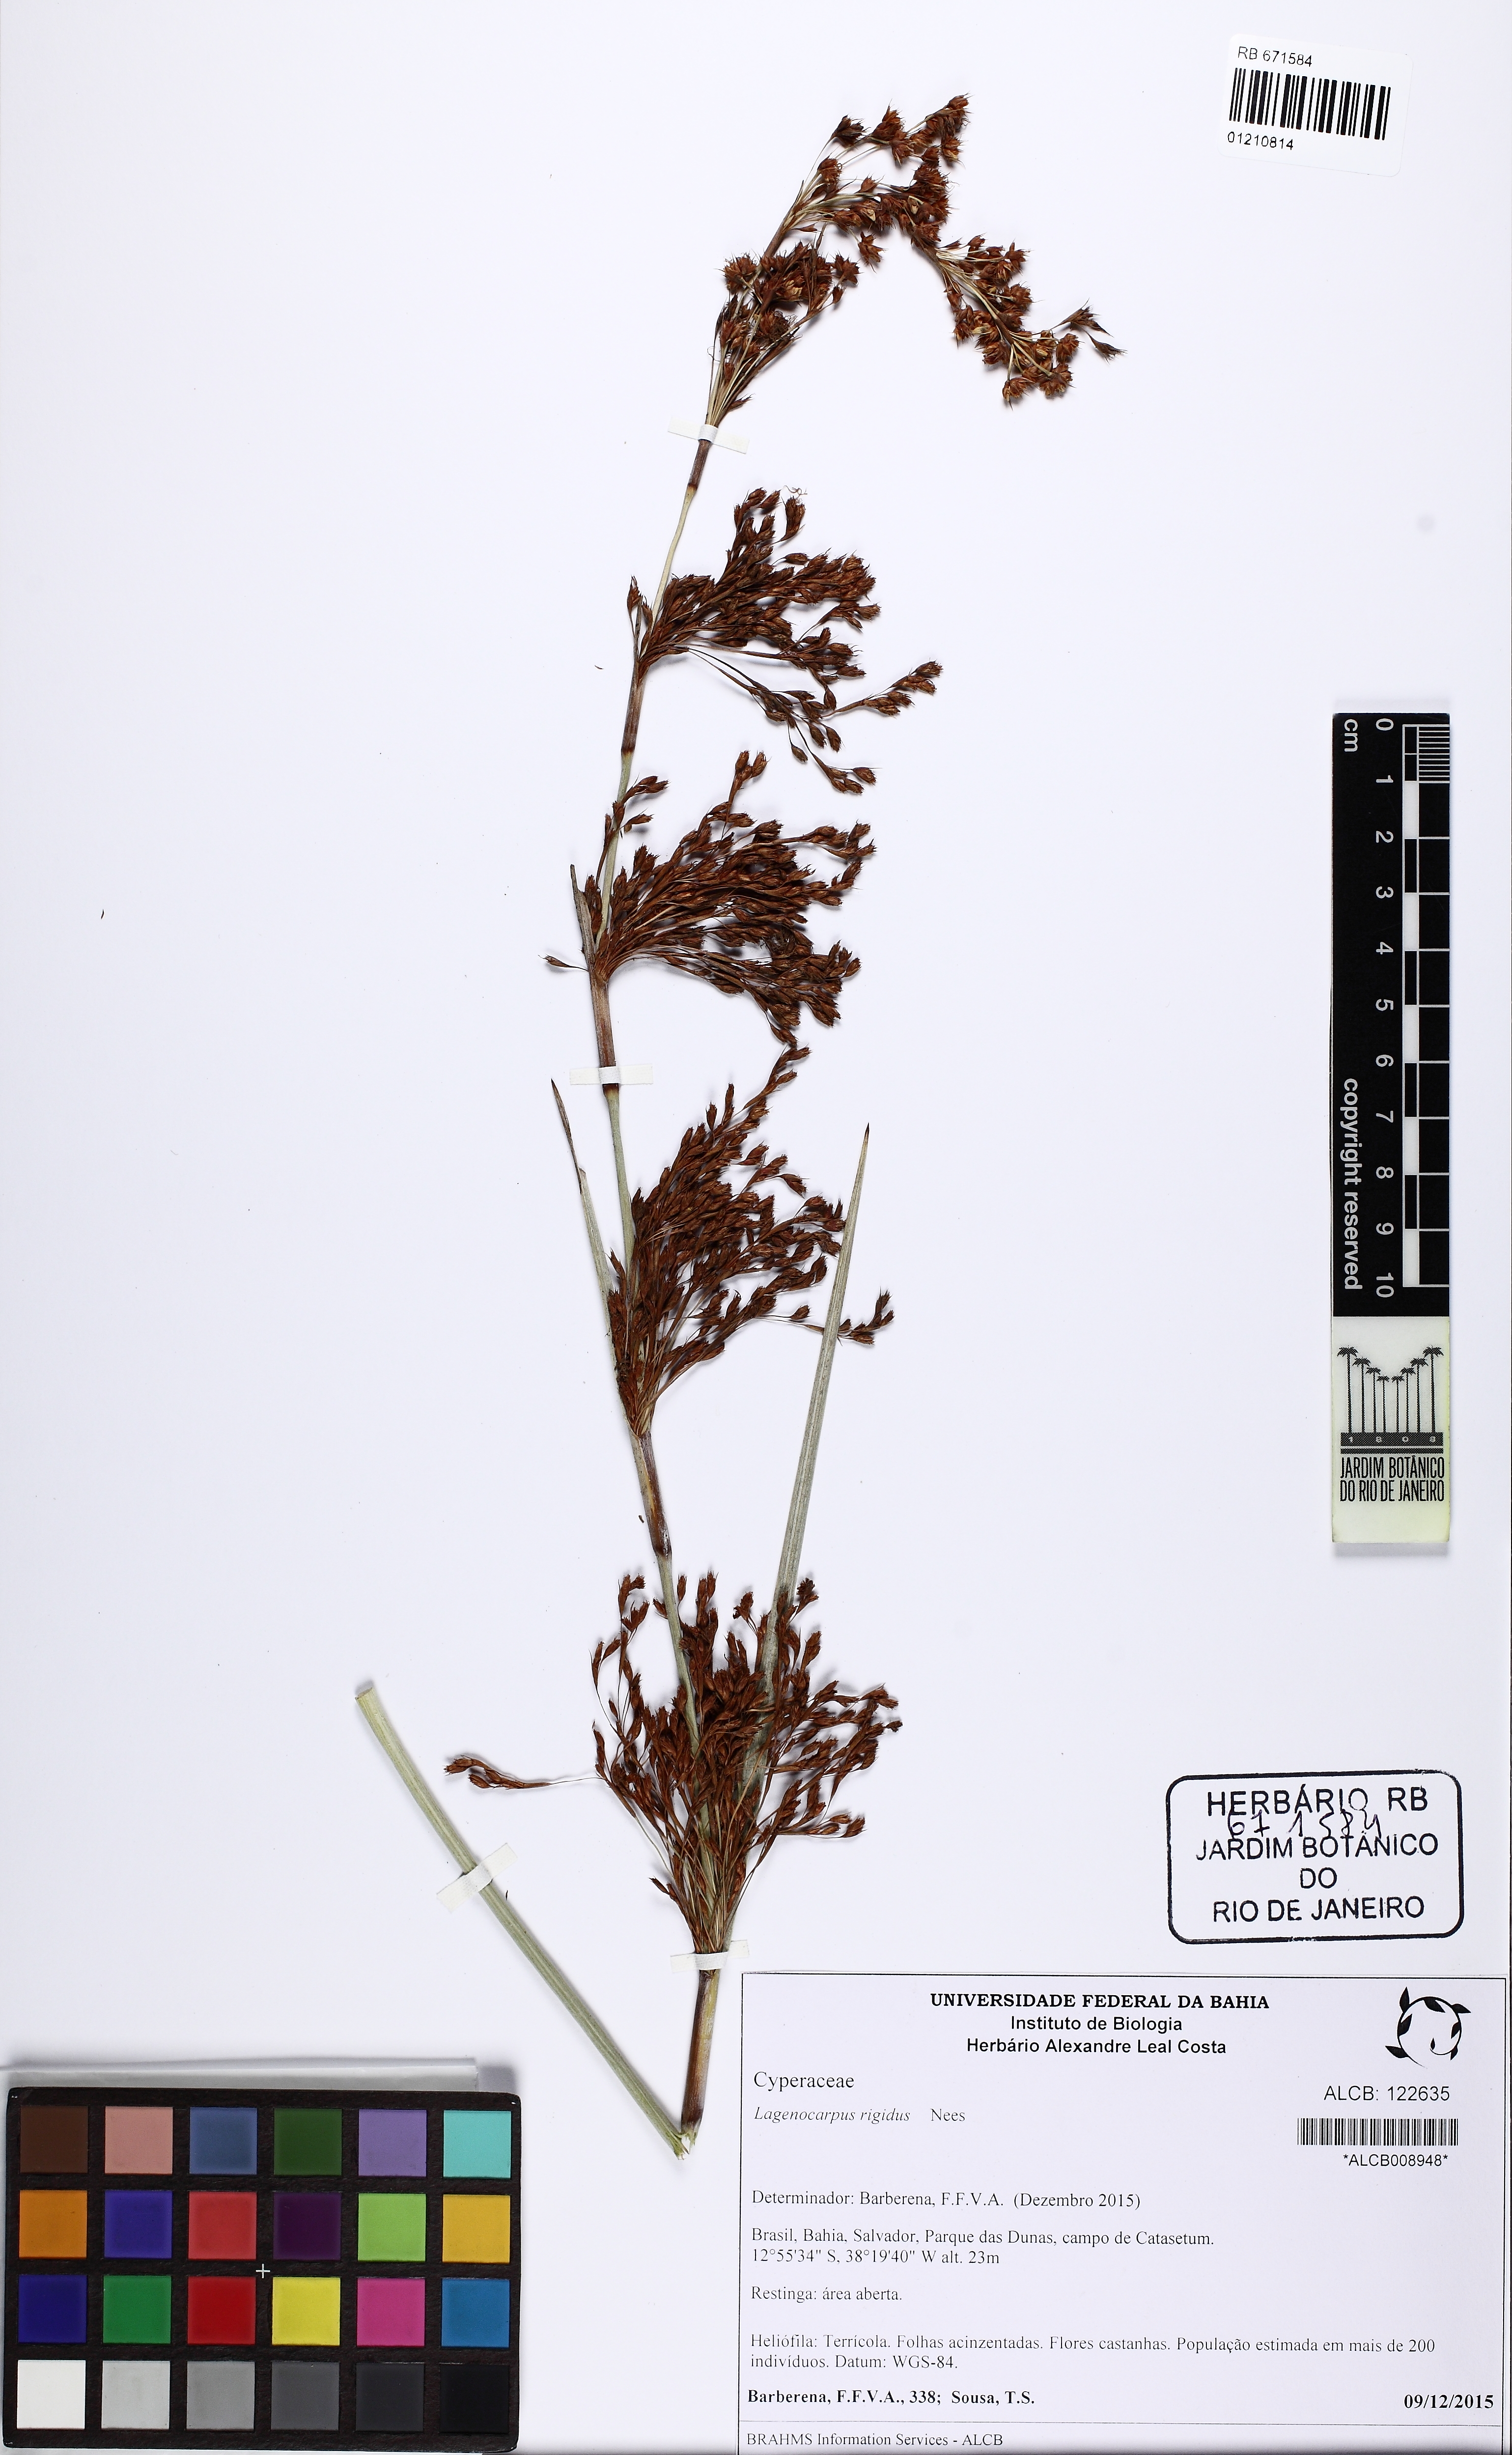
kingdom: Plantae
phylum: Tracheophyta
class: Liliopsida
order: Poales
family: Cyperaceae
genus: Lagenocarpus
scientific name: Lagenocarpus rigidus
